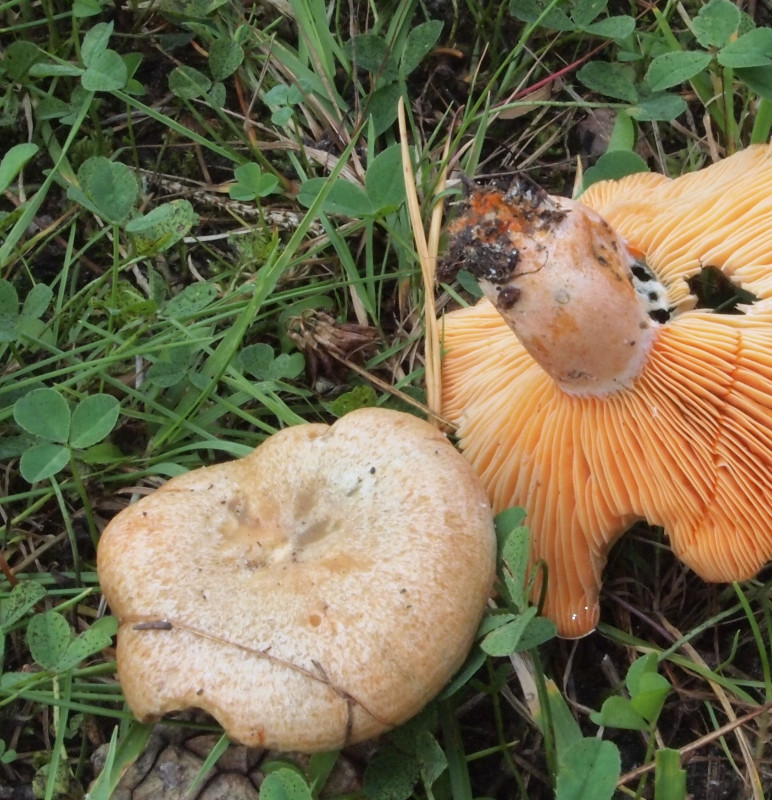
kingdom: Fungi
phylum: Basidiomycota
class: Agaricomycetes
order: Russulales
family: Russulaceae
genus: Lactarius
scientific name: Lactarius deliciosus
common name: velsmagende mælkehat
